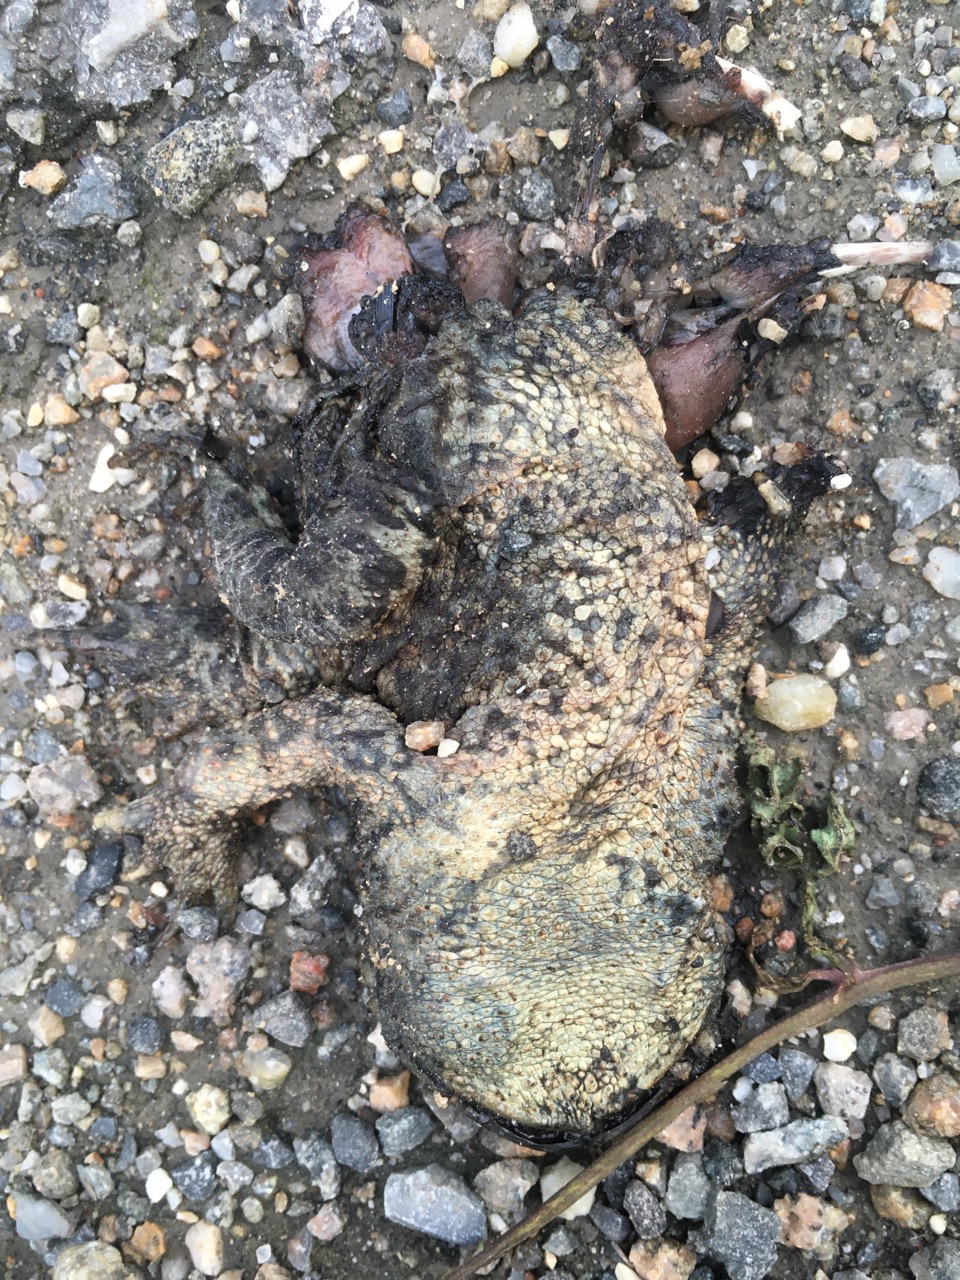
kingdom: Animalia
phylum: Chordata
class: Amphibia
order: Anura
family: Bufonidae
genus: Bufo
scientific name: Bufo bufo
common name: Common toad
